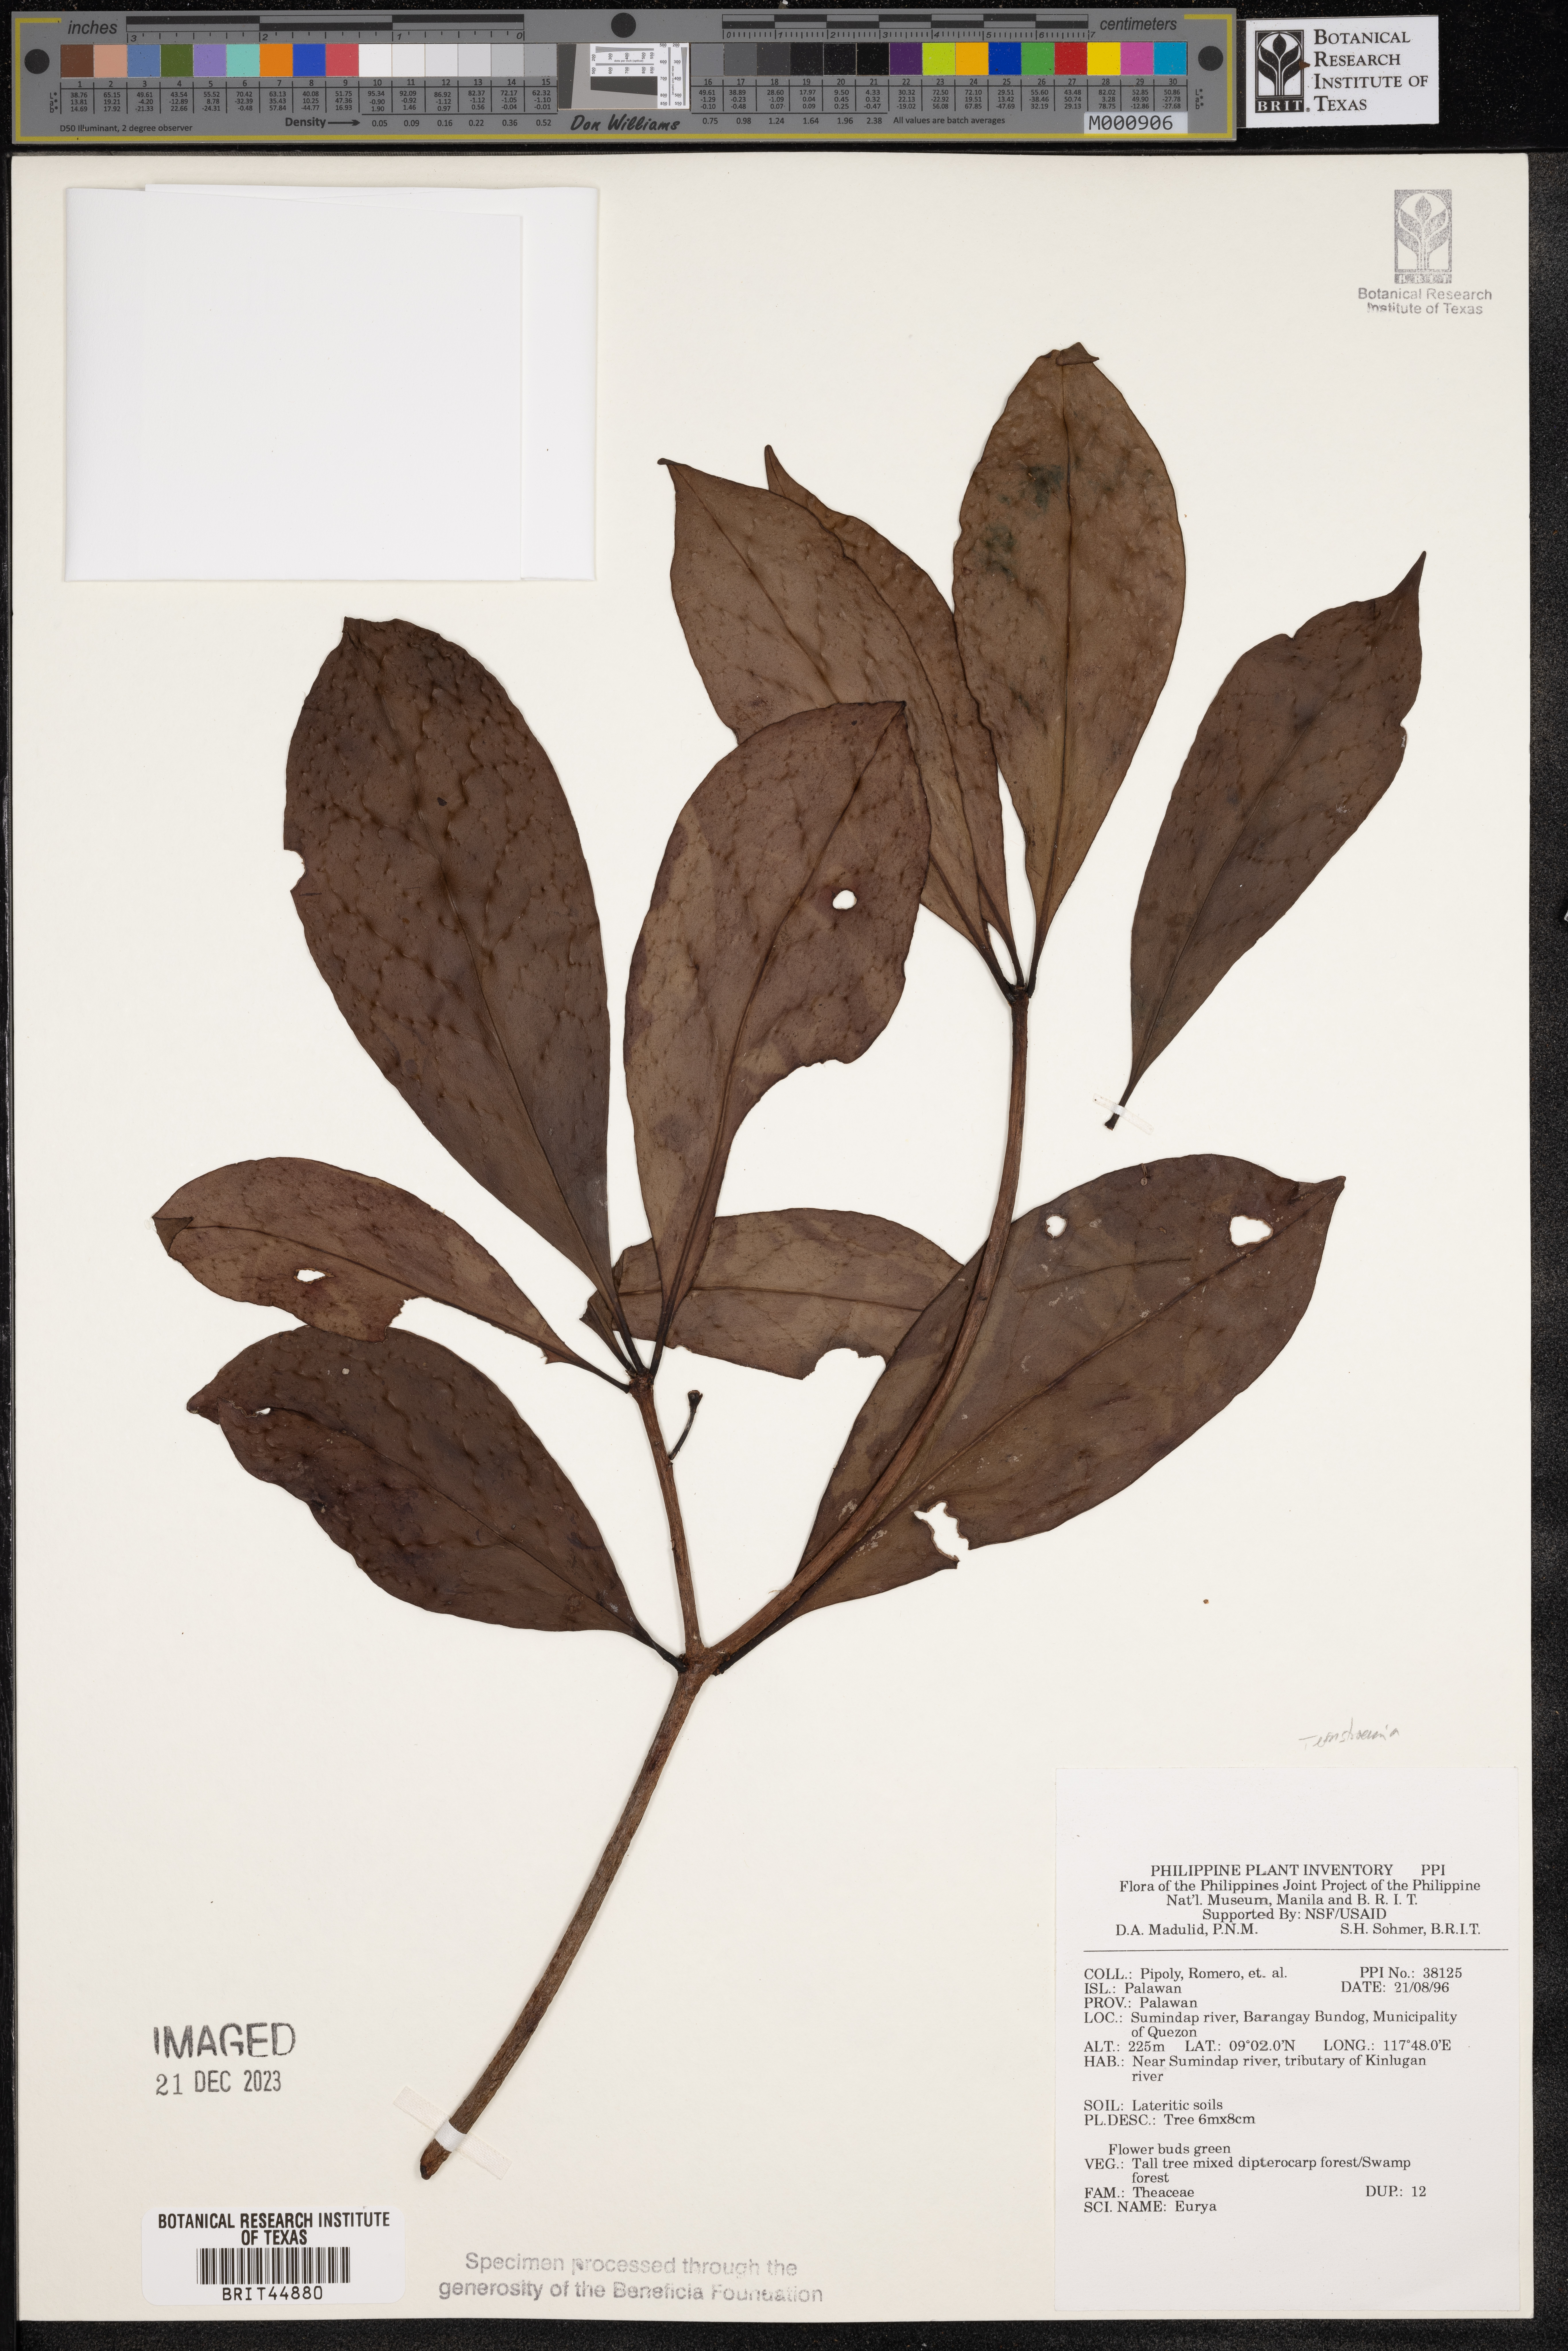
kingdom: Plantae
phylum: Tracheophyta
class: Magnoliopsida
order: Ericales
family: Pentaphylacaceae
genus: Eurya
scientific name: Eurya
